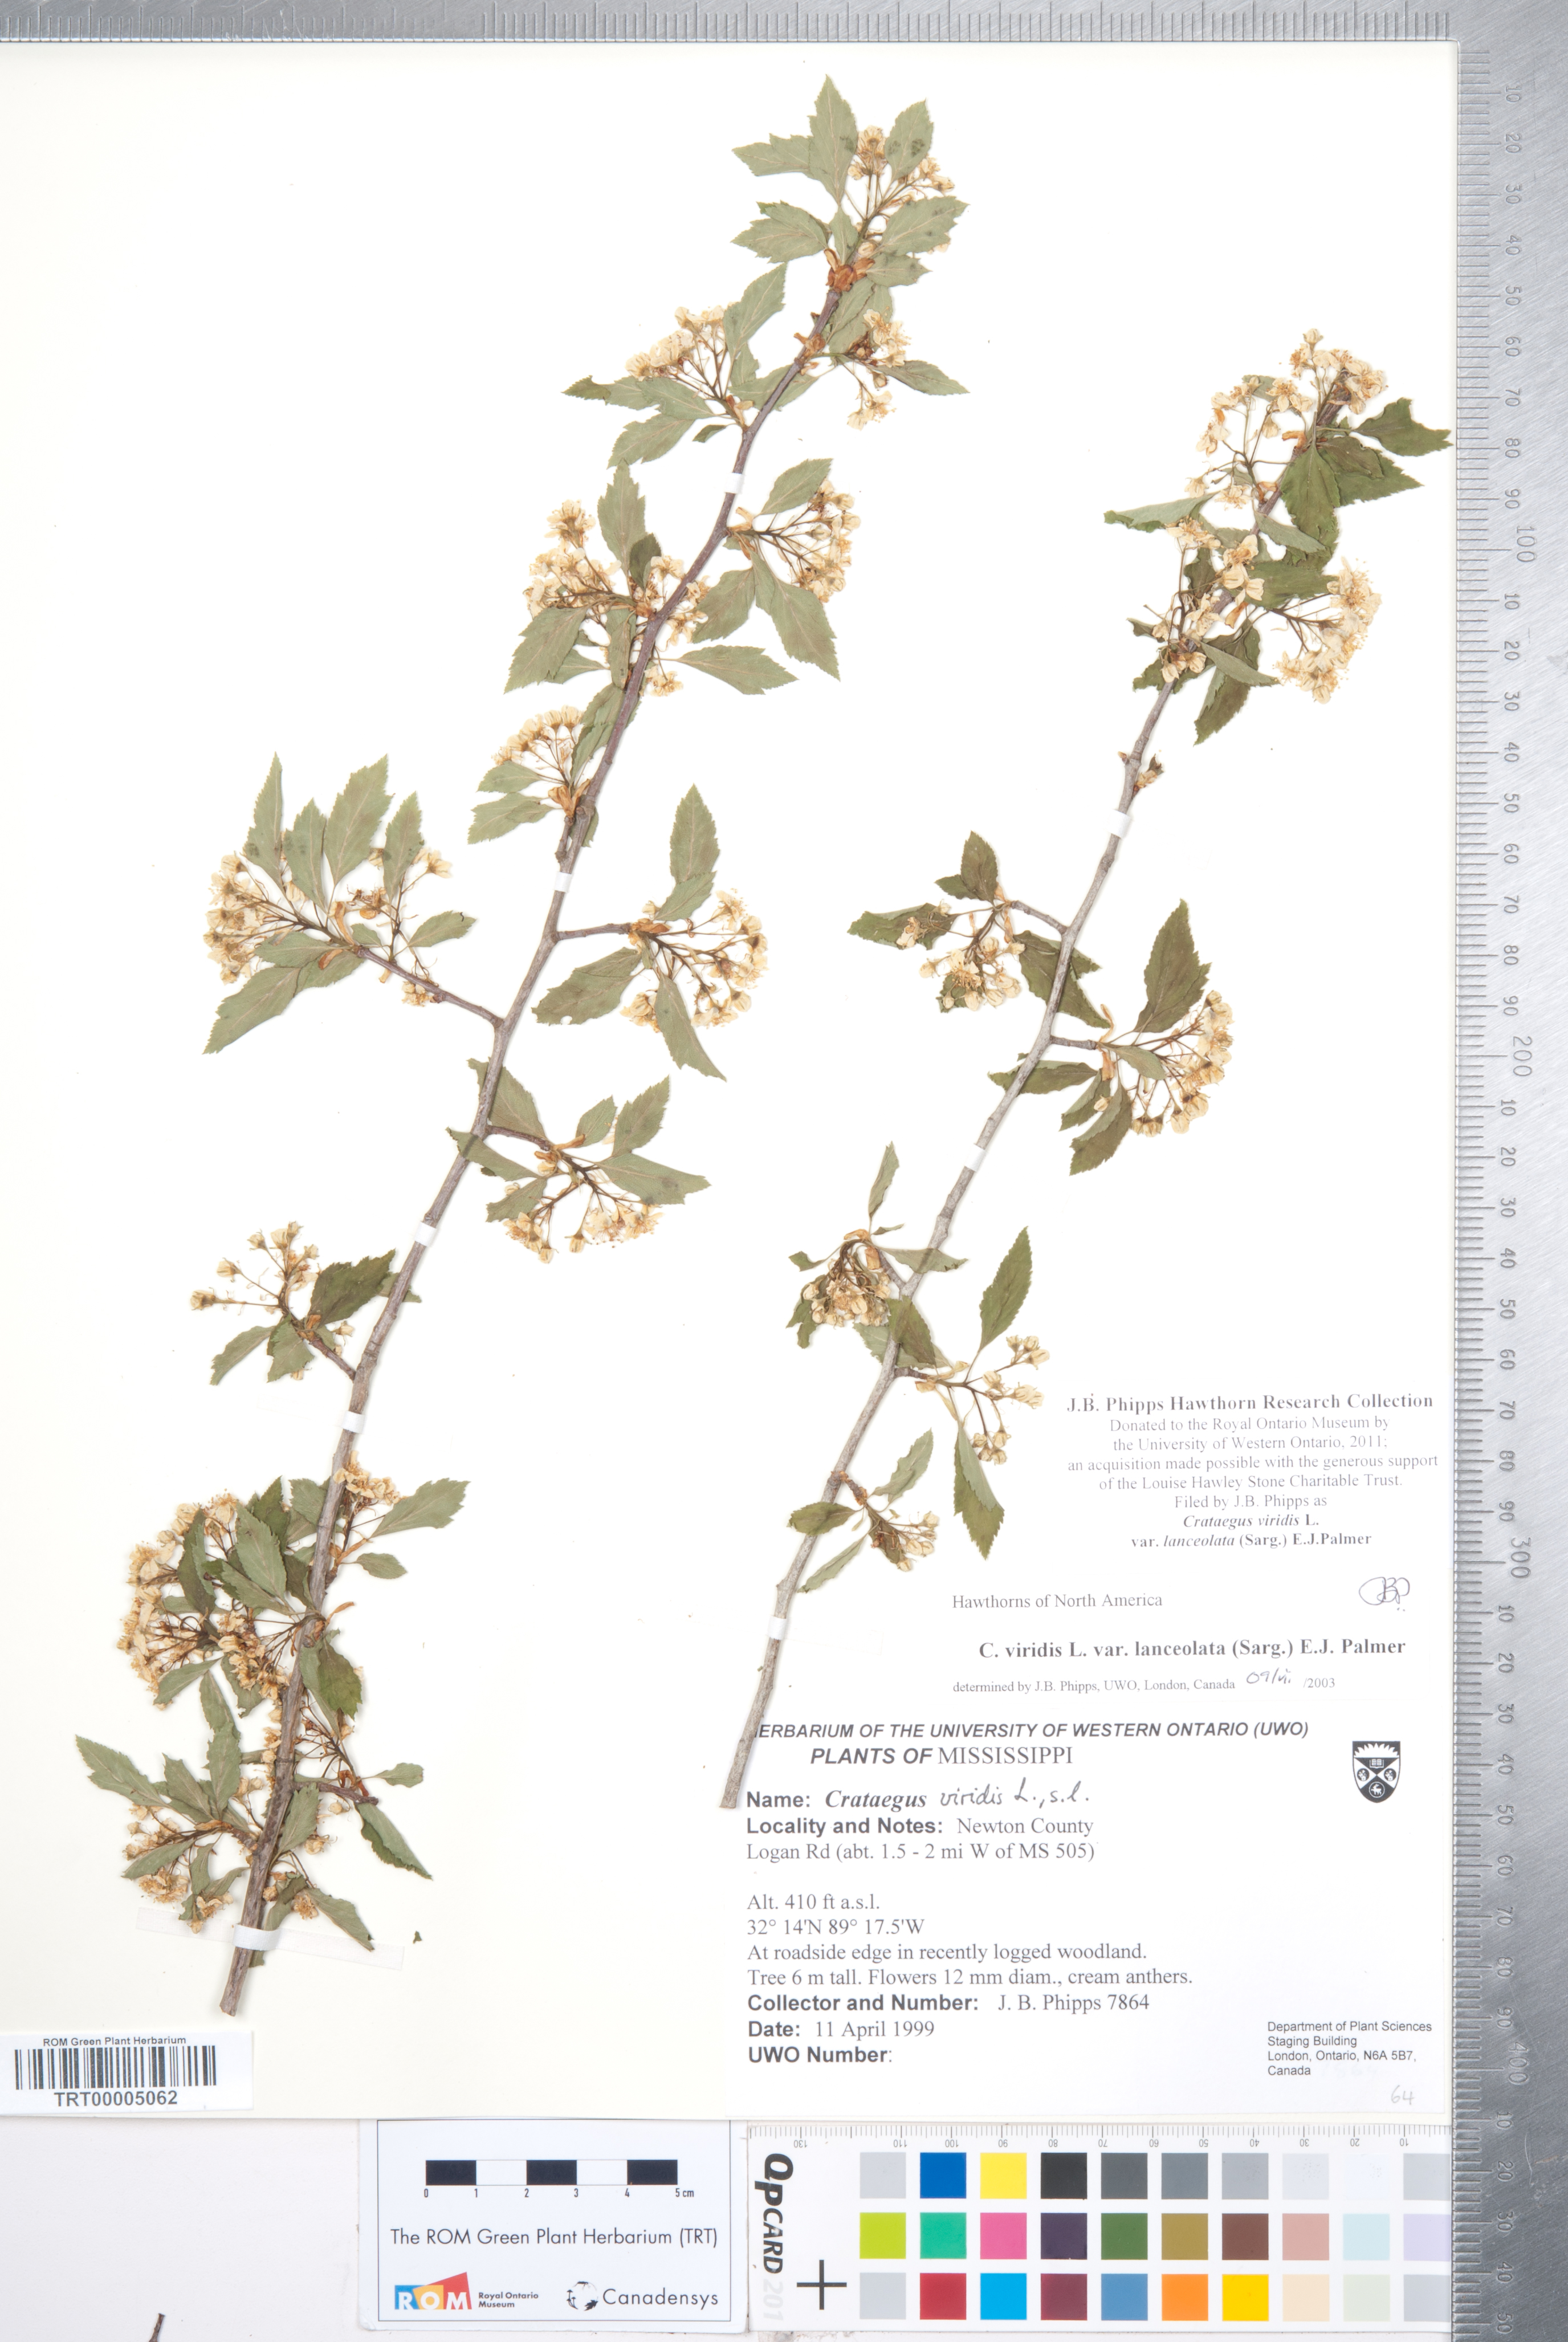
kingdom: Plantae
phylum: Tracheophyta
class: Magnoliopsida
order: Rosales
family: Rosaceae
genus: Crataegus
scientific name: Crataegus viridis
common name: Southernthorn
